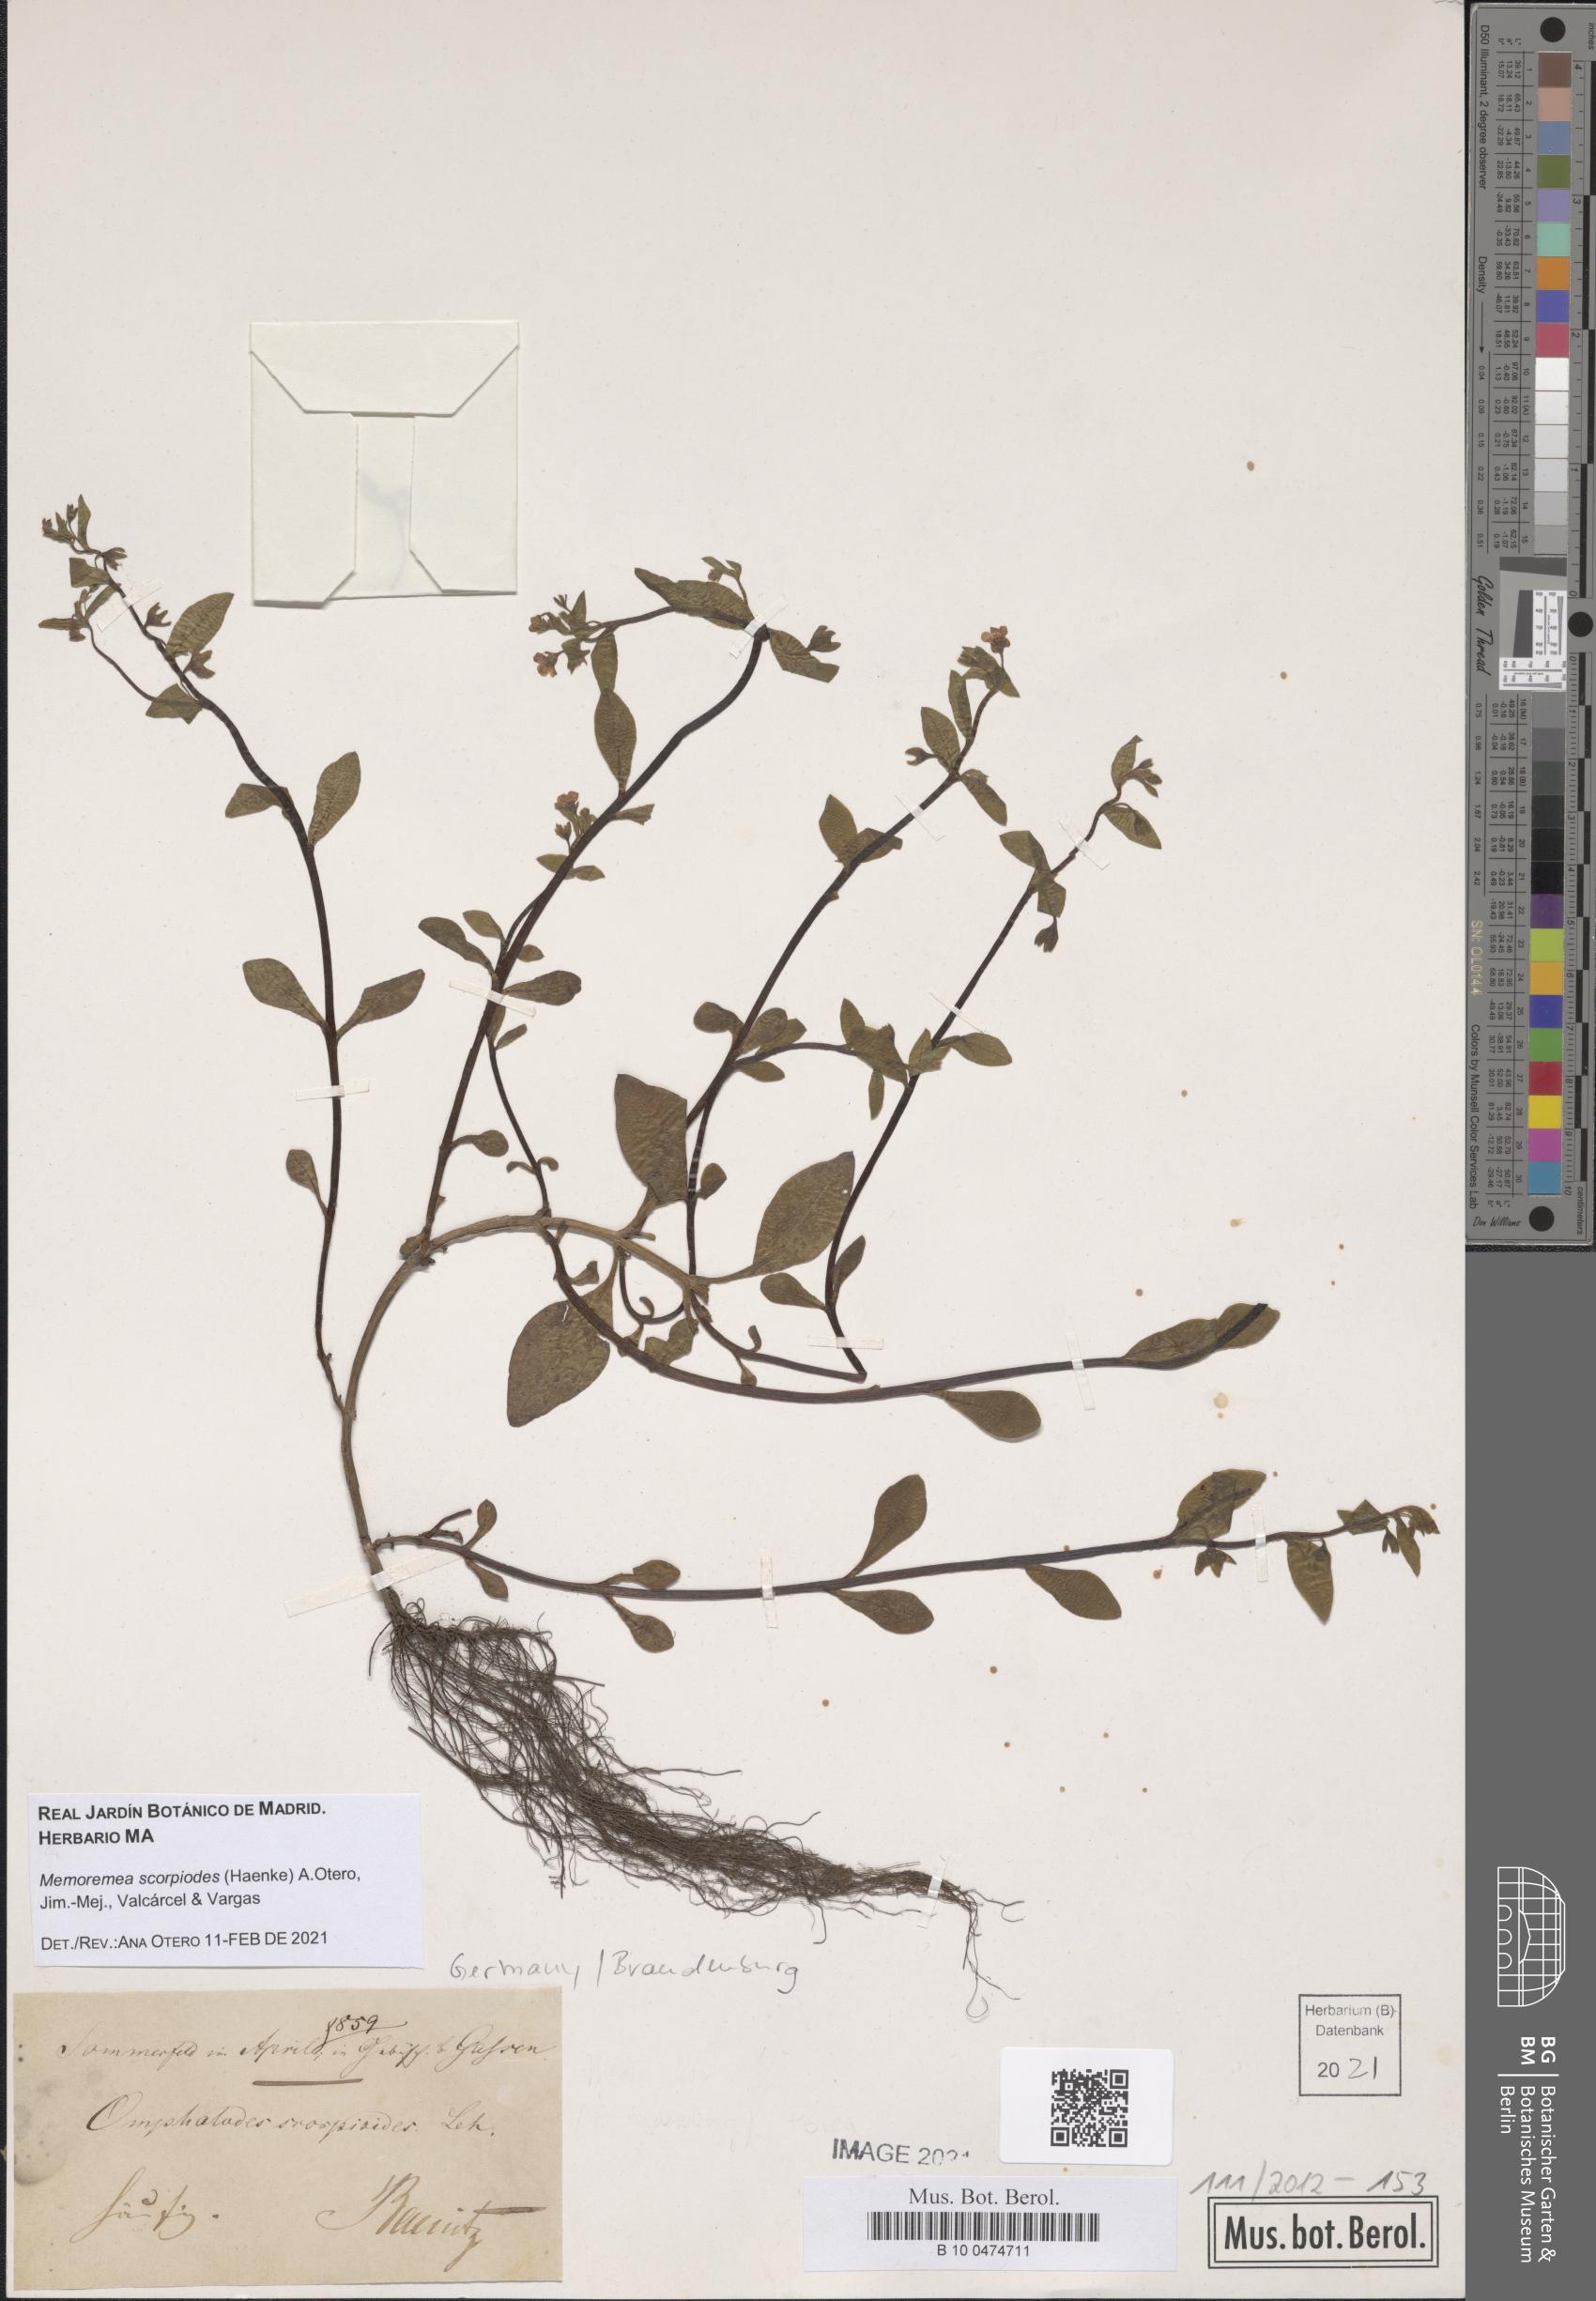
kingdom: Plantae
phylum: Tracheophyta
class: Magnoliopsida
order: Boraginales
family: Boraginaceae
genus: Memoremea
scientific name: Memoremea scorpioides
